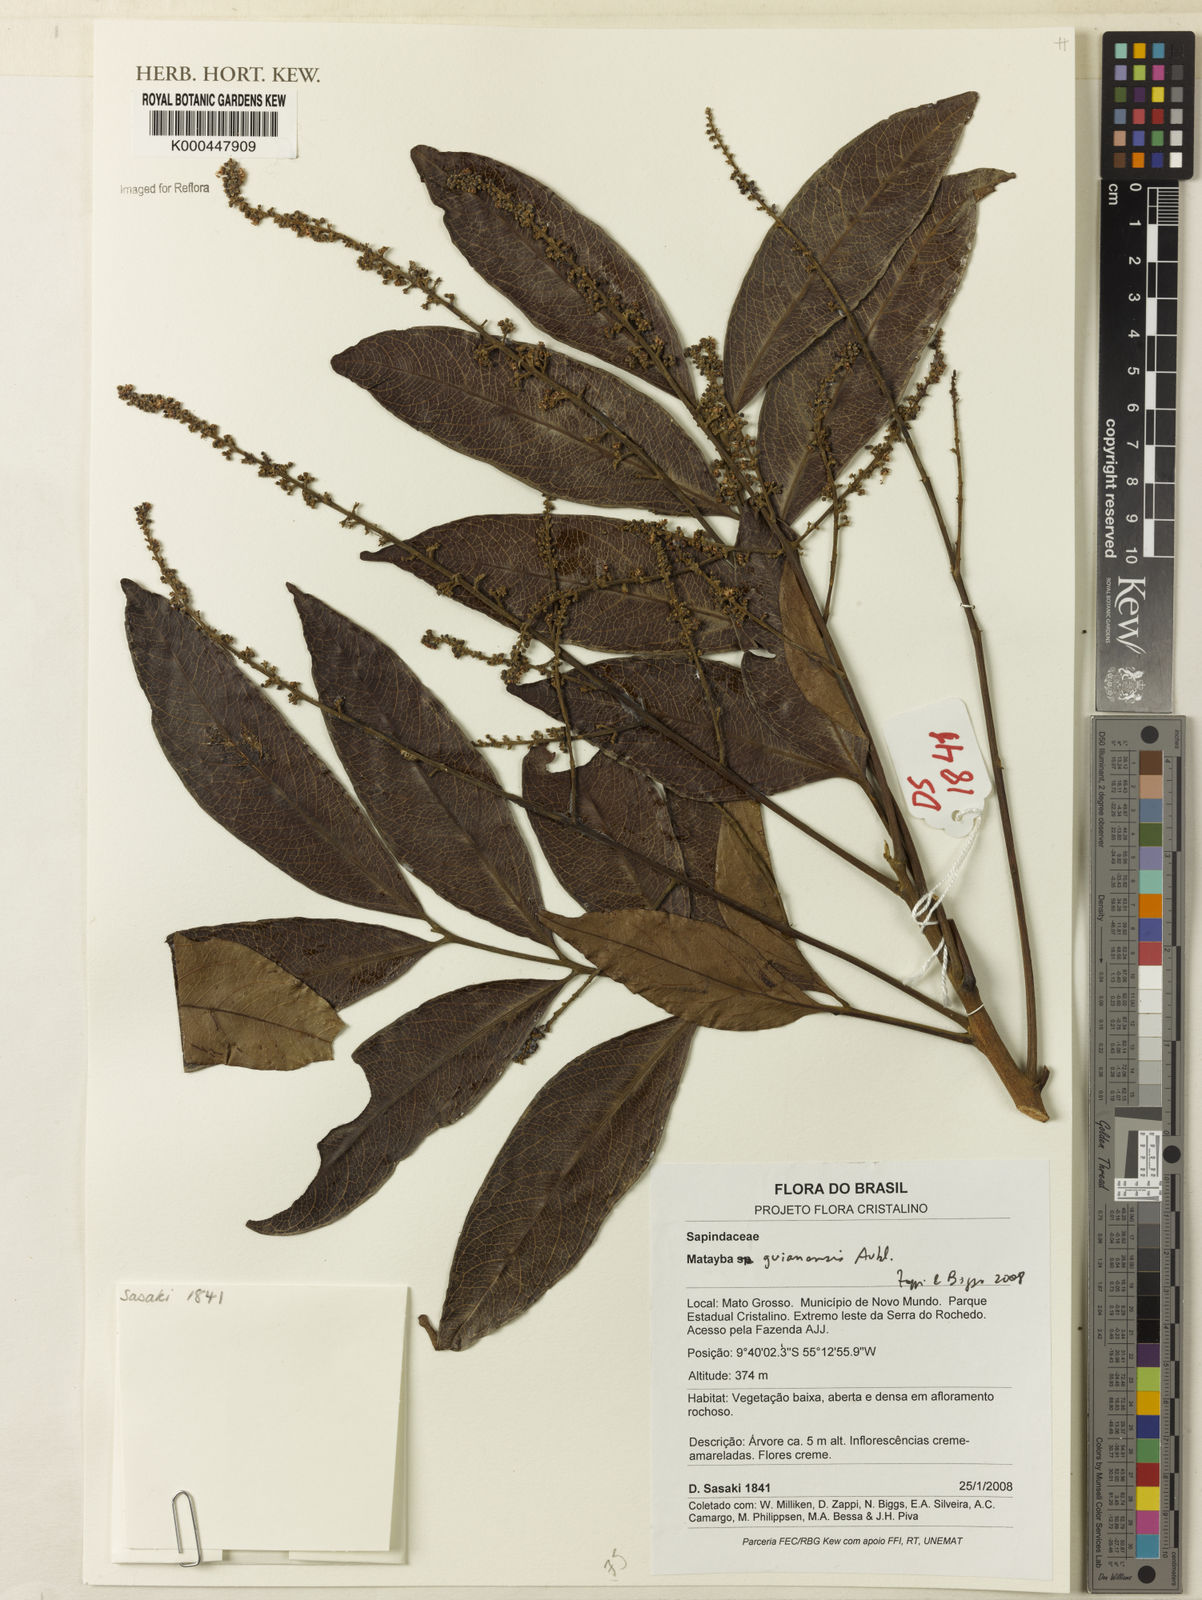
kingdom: Plantae
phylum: Tracheophyta
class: Magnoliopsida
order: Sapindales
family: Sapindaceae
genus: Matayba
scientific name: Matayba guianensis
